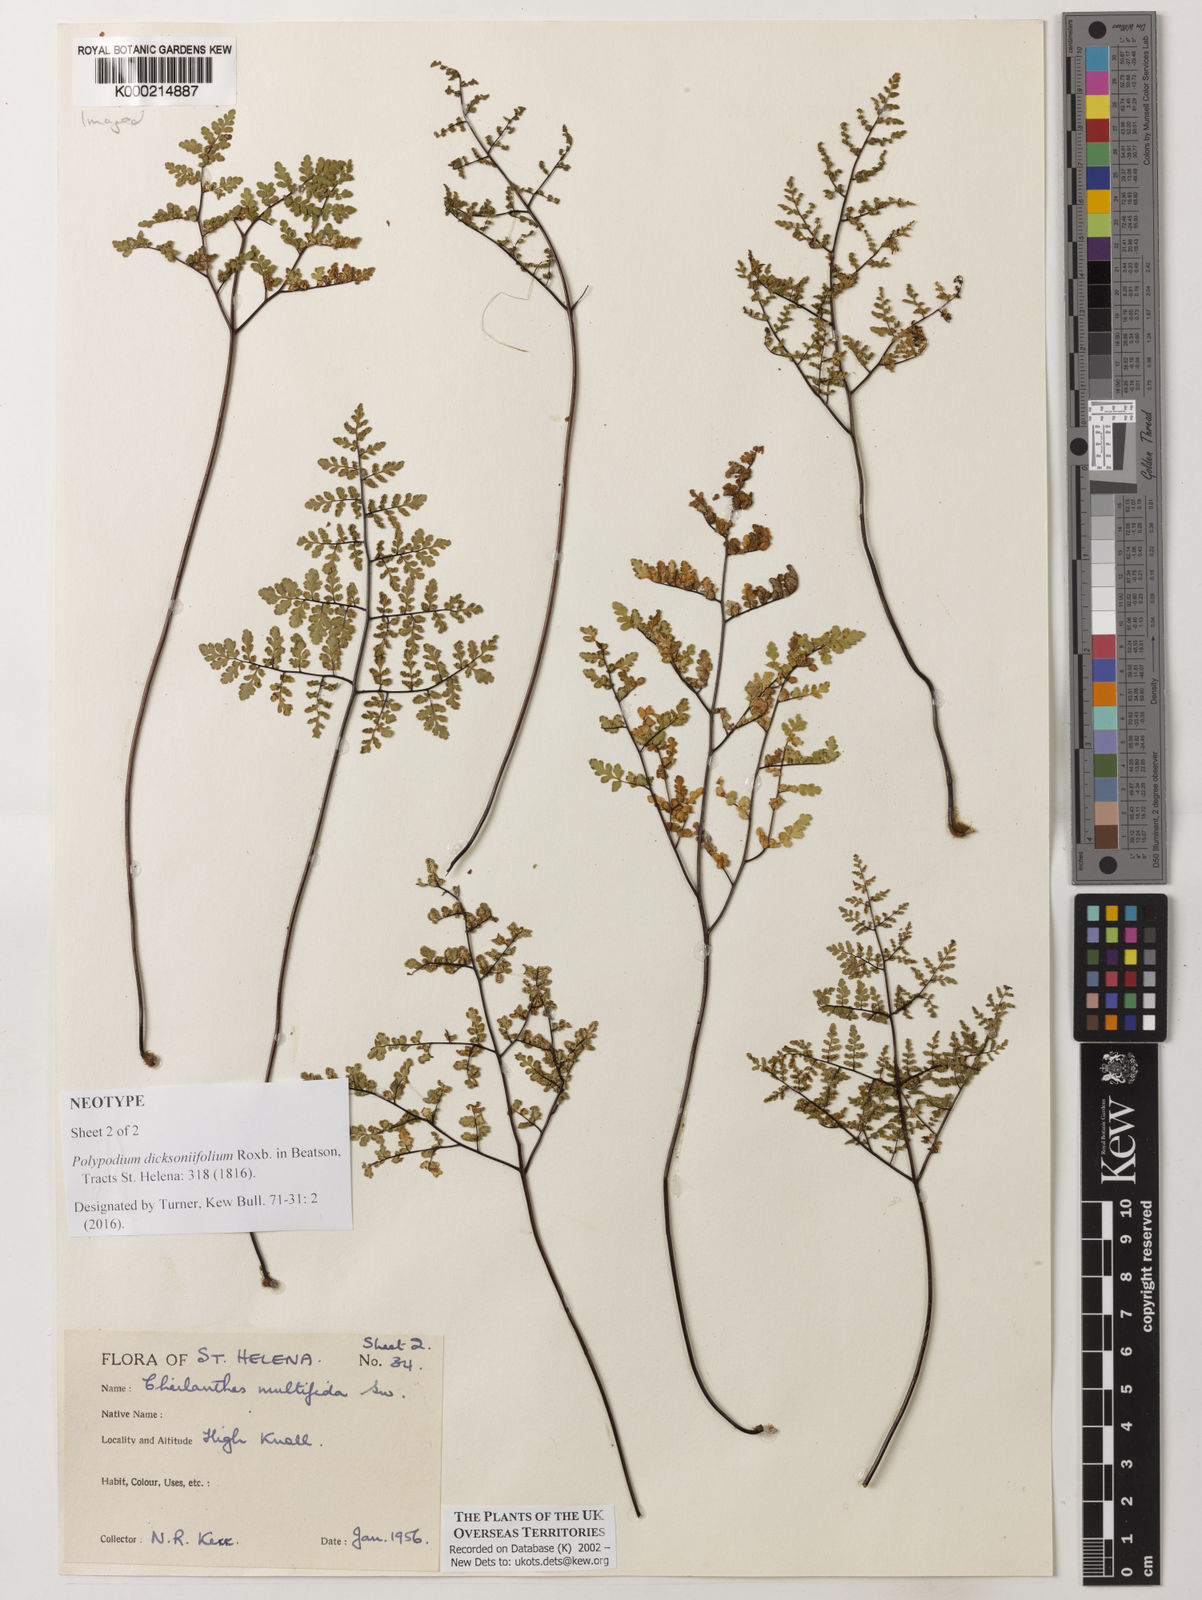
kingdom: Plantae
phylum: Tracheophyta
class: Polypodiopsida
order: Polypodiales
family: Pteridaceae
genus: Cheilanthes
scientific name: Cheilanthes multifida
